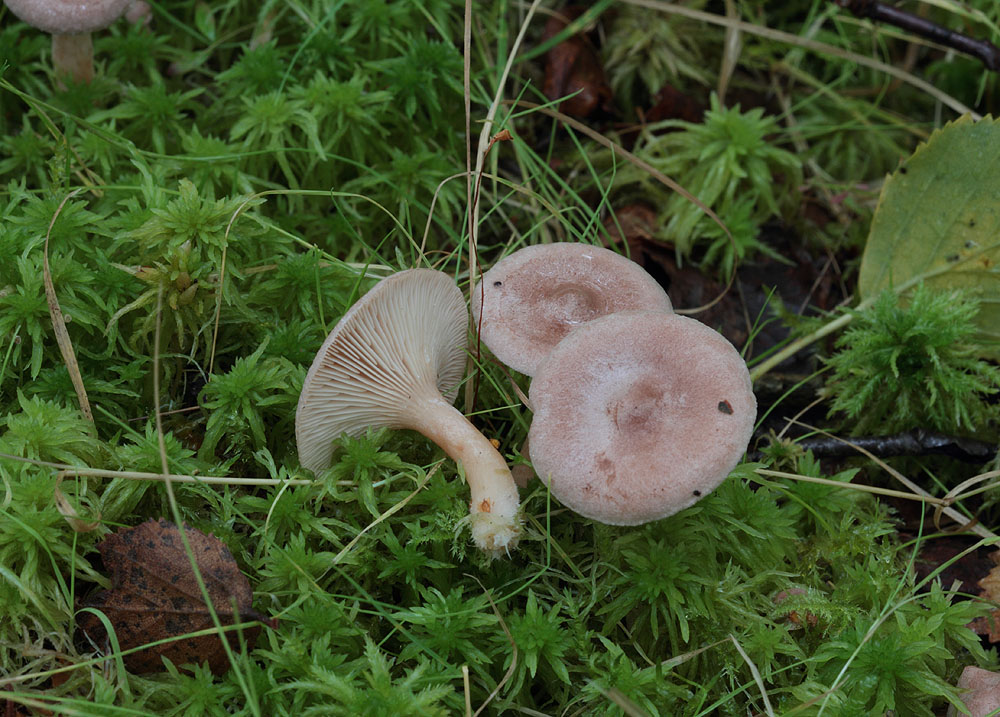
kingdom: Fungi
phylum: Basidiomycota
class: Agaricomycetes
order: Russulales
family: Russulaceae
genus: Lactarius
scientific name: Lactarius glyciosmus
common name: kokos-mælkehat
